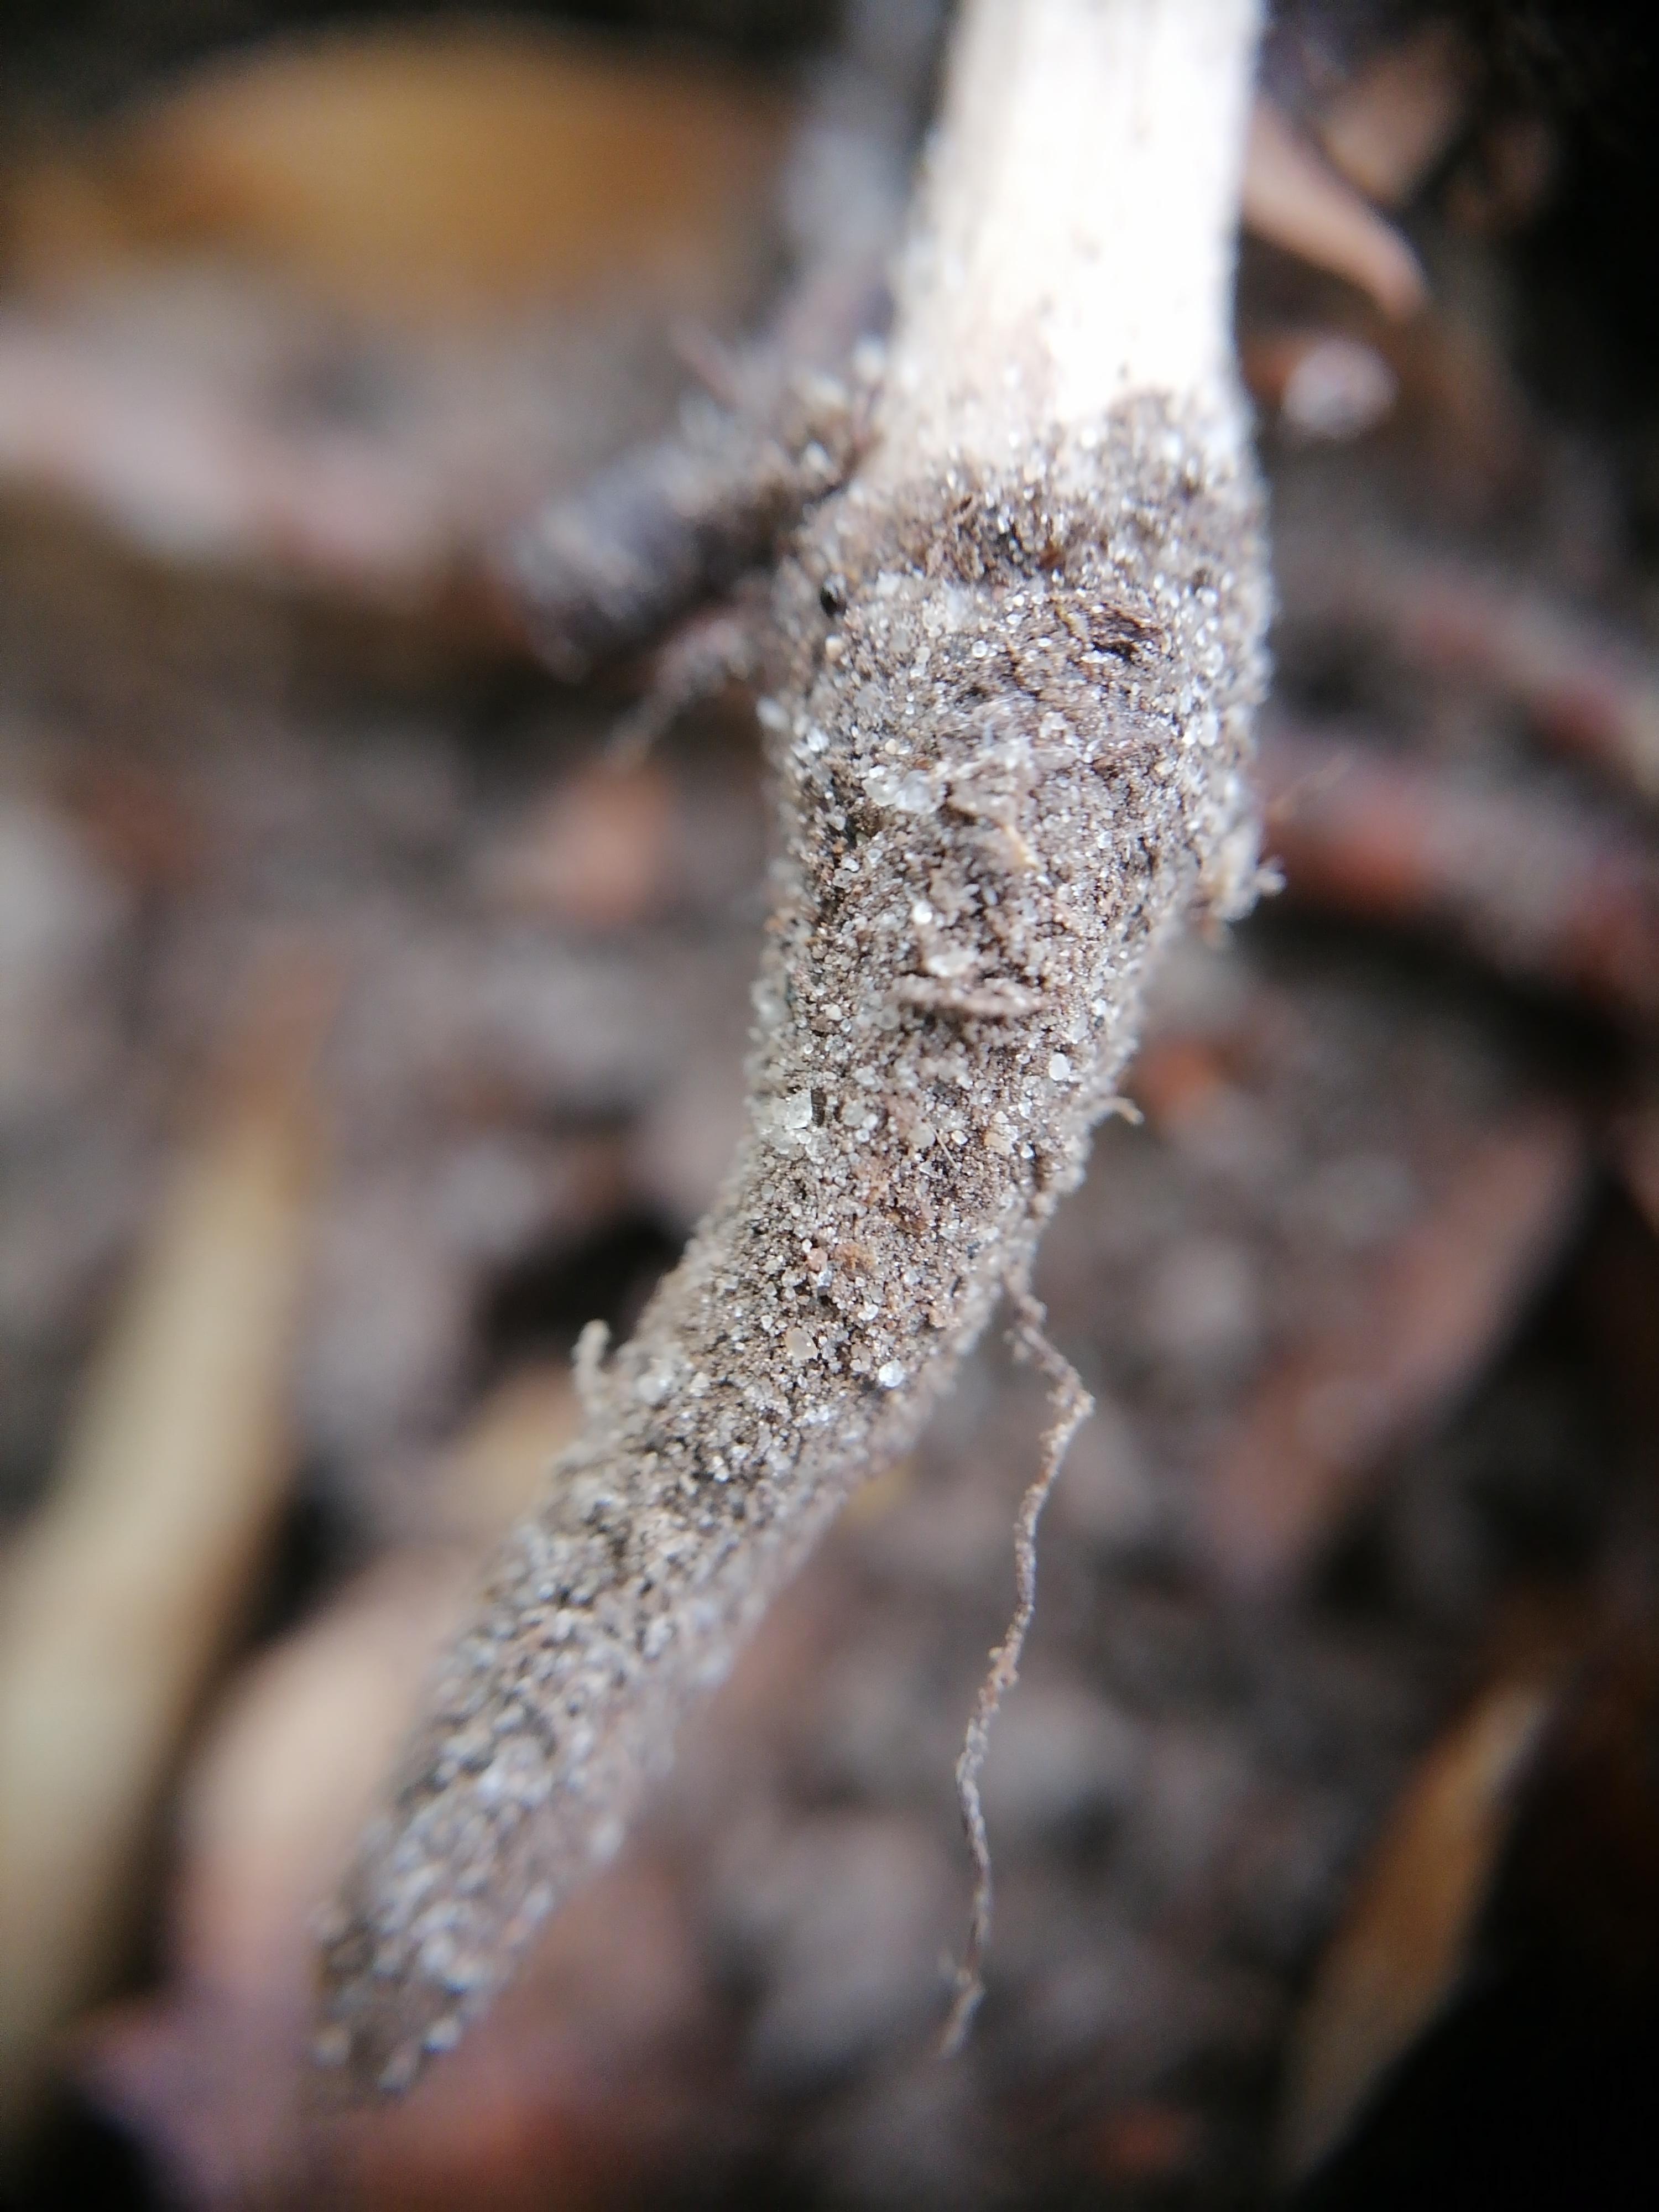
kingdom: Fungi
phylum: Basidiomycota
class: Agaricomycetes
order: Agaricales
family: Physalacriaceae
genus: Hymenopellis
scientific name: Hymenopellis radicata
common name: almindelig pælerodshat
